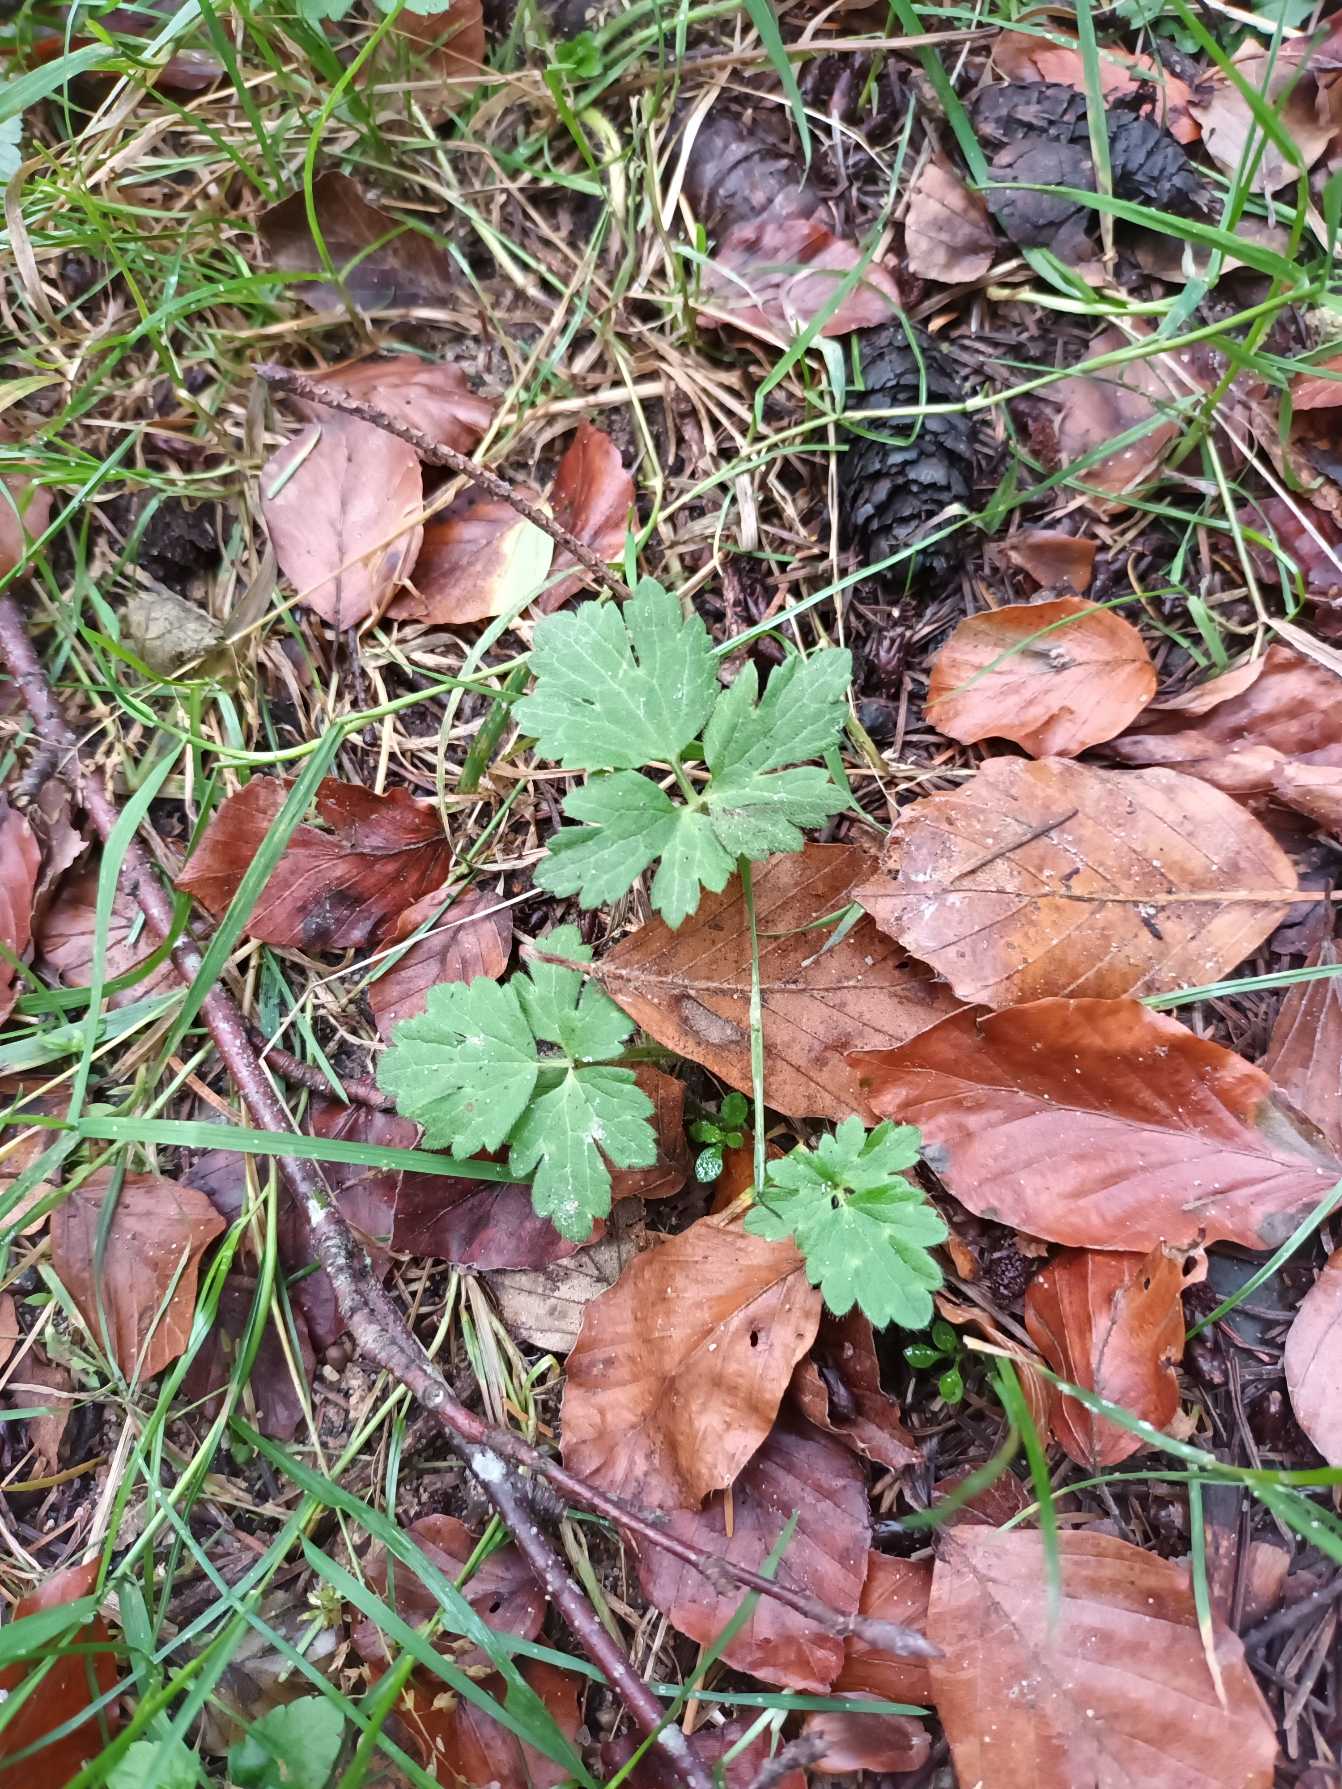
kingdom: Plantae
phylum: Tracheophyta
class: Magnoliopsida
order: Ranunculales
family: Ranunculaceae
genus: Ranunculus
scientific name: Ranunculus repens
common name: Lav ranunkel
